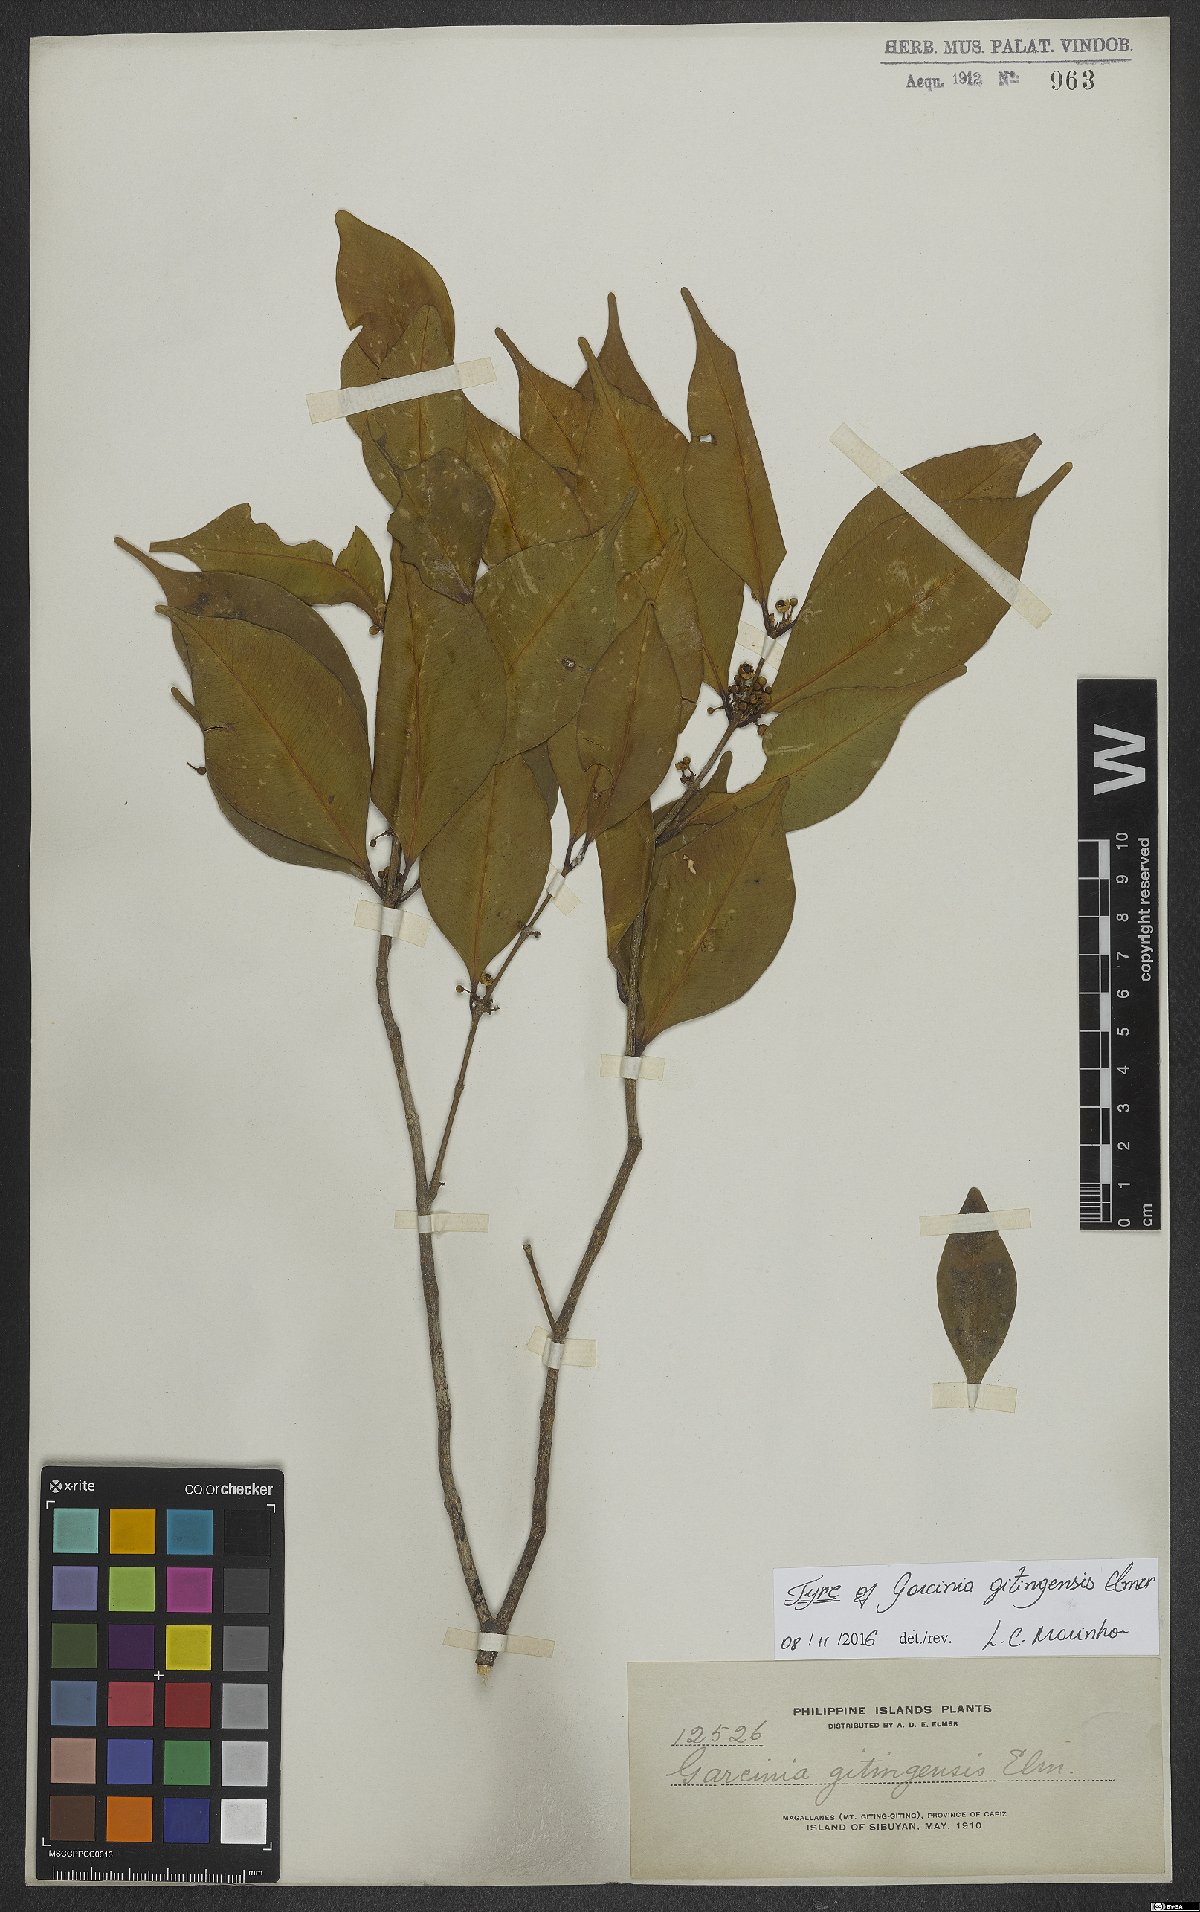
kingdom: Plantae
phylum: Tracheophyta
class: Magnoliopsida
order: Malpighiales
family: Clusiaceae
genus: Garcinia
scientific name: Garcinia brevirostris
